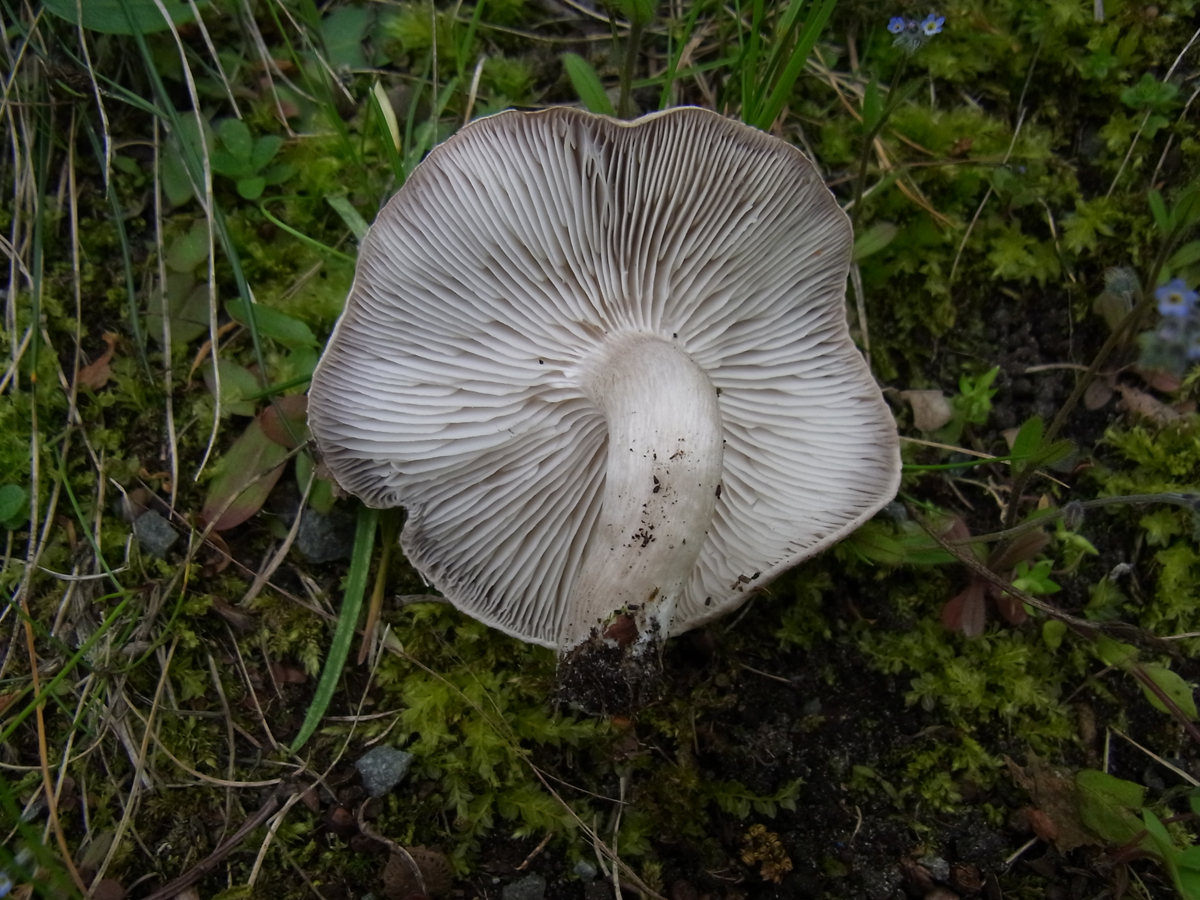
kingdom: Fungi
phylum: Basidiomycota
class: Agaricomycetes
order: Agaricales
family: Tricholomataceae
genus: Tricholoma
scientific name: Tricholoma scalpturatum
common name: Yellowing knight
